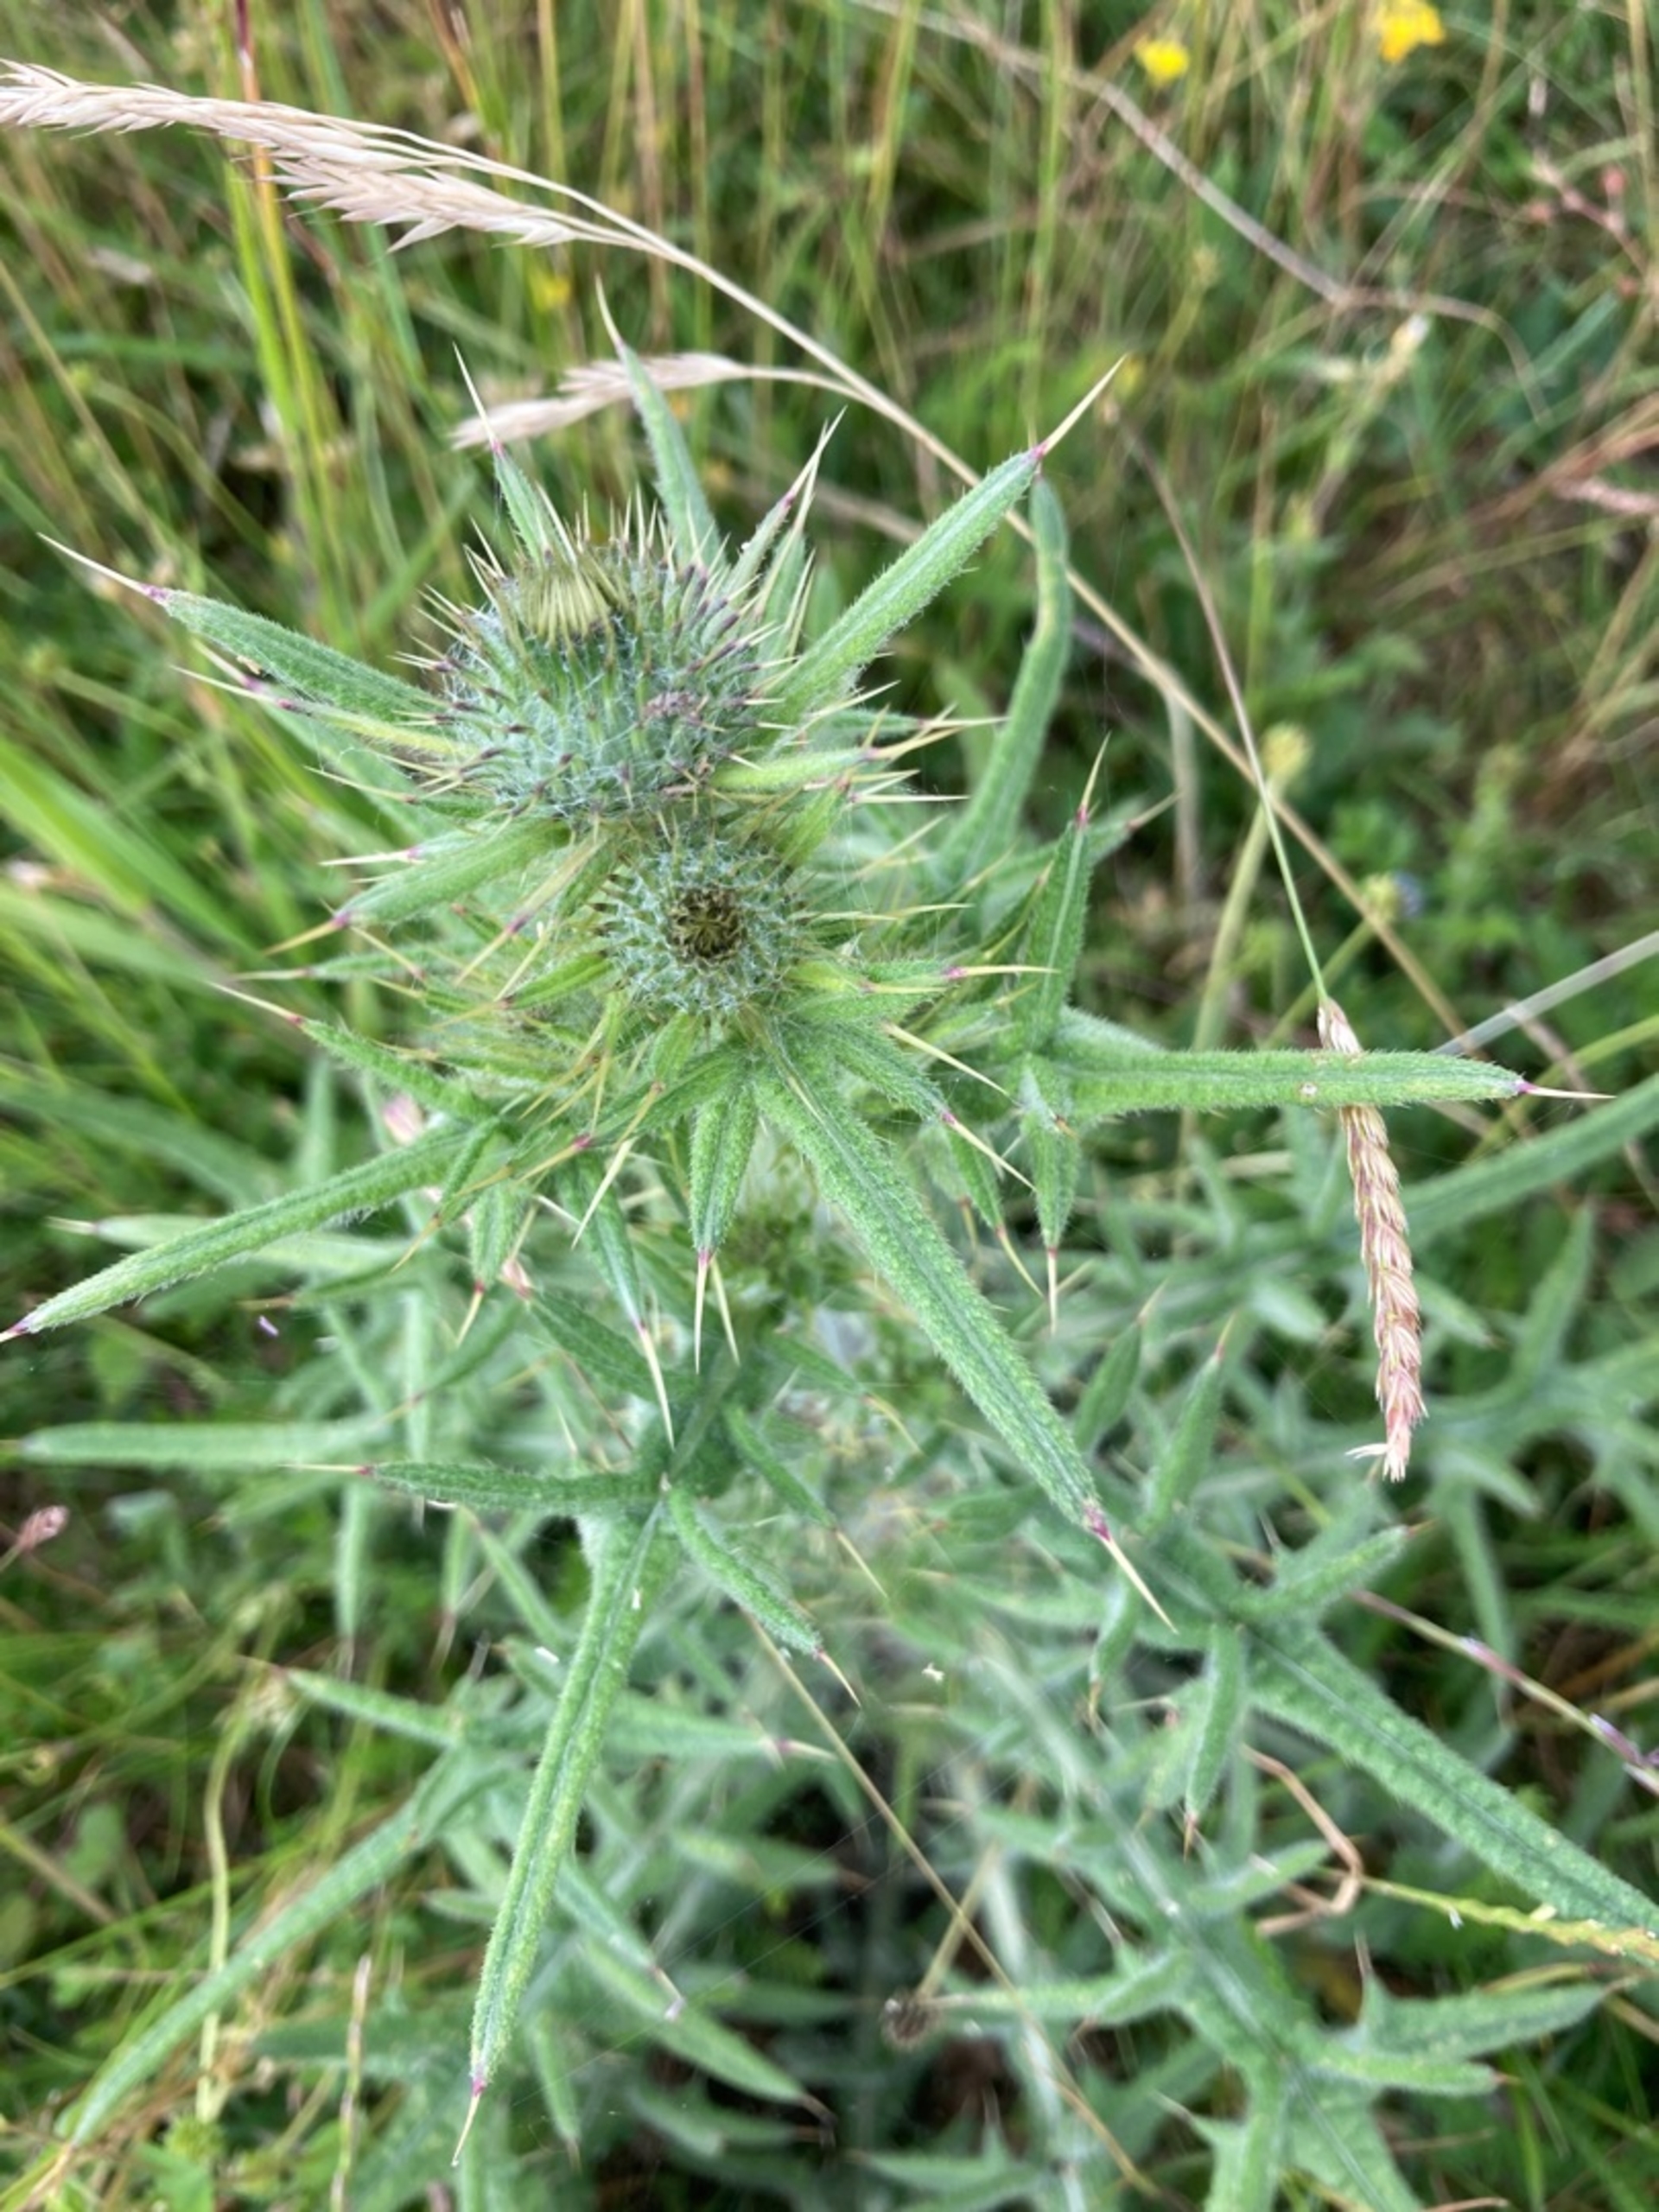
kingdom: Plantae
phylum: Tracheophyta
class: Magnoliopsida
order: Asterales
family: Asteraceae
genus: Cirsium
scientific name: Cirsium vulgare
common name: Horse-tidsel
